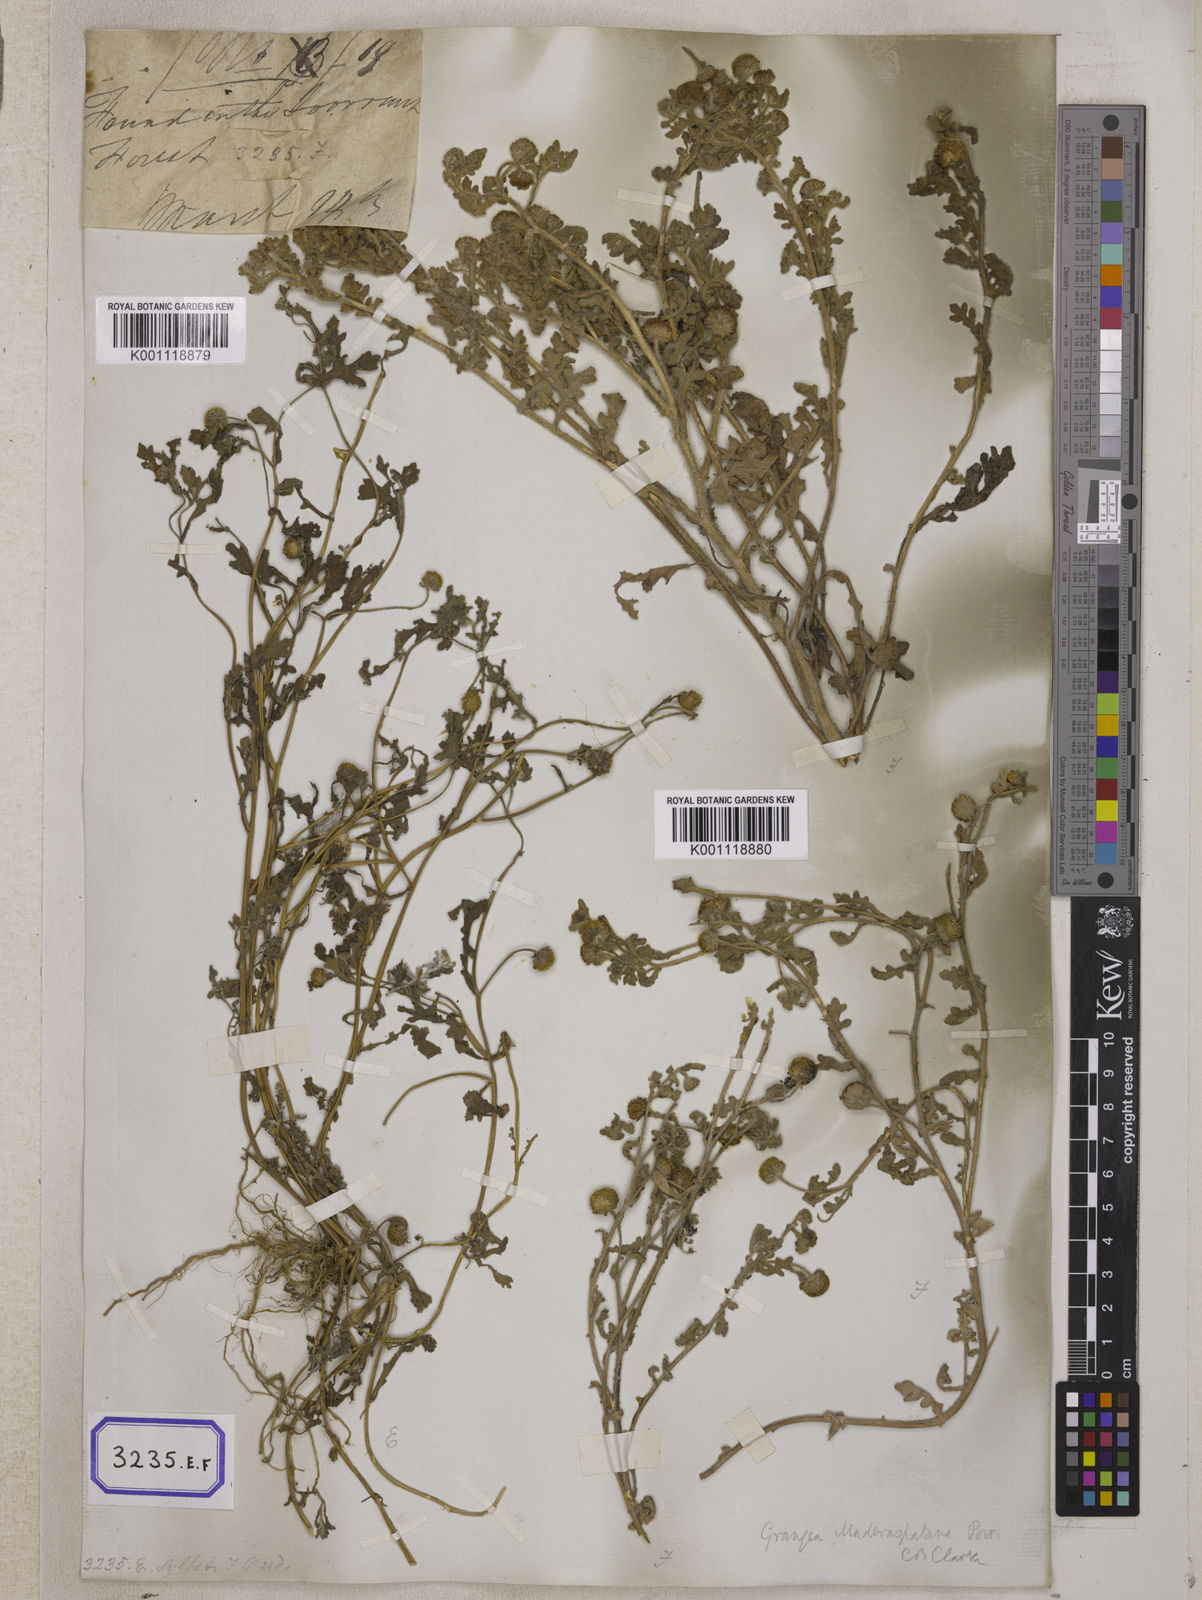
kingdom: Plantae
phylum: Tracheophyta
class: Magnoliopsida
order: Asterales
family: Asteraceae
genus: Grangea
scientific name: Grangea
